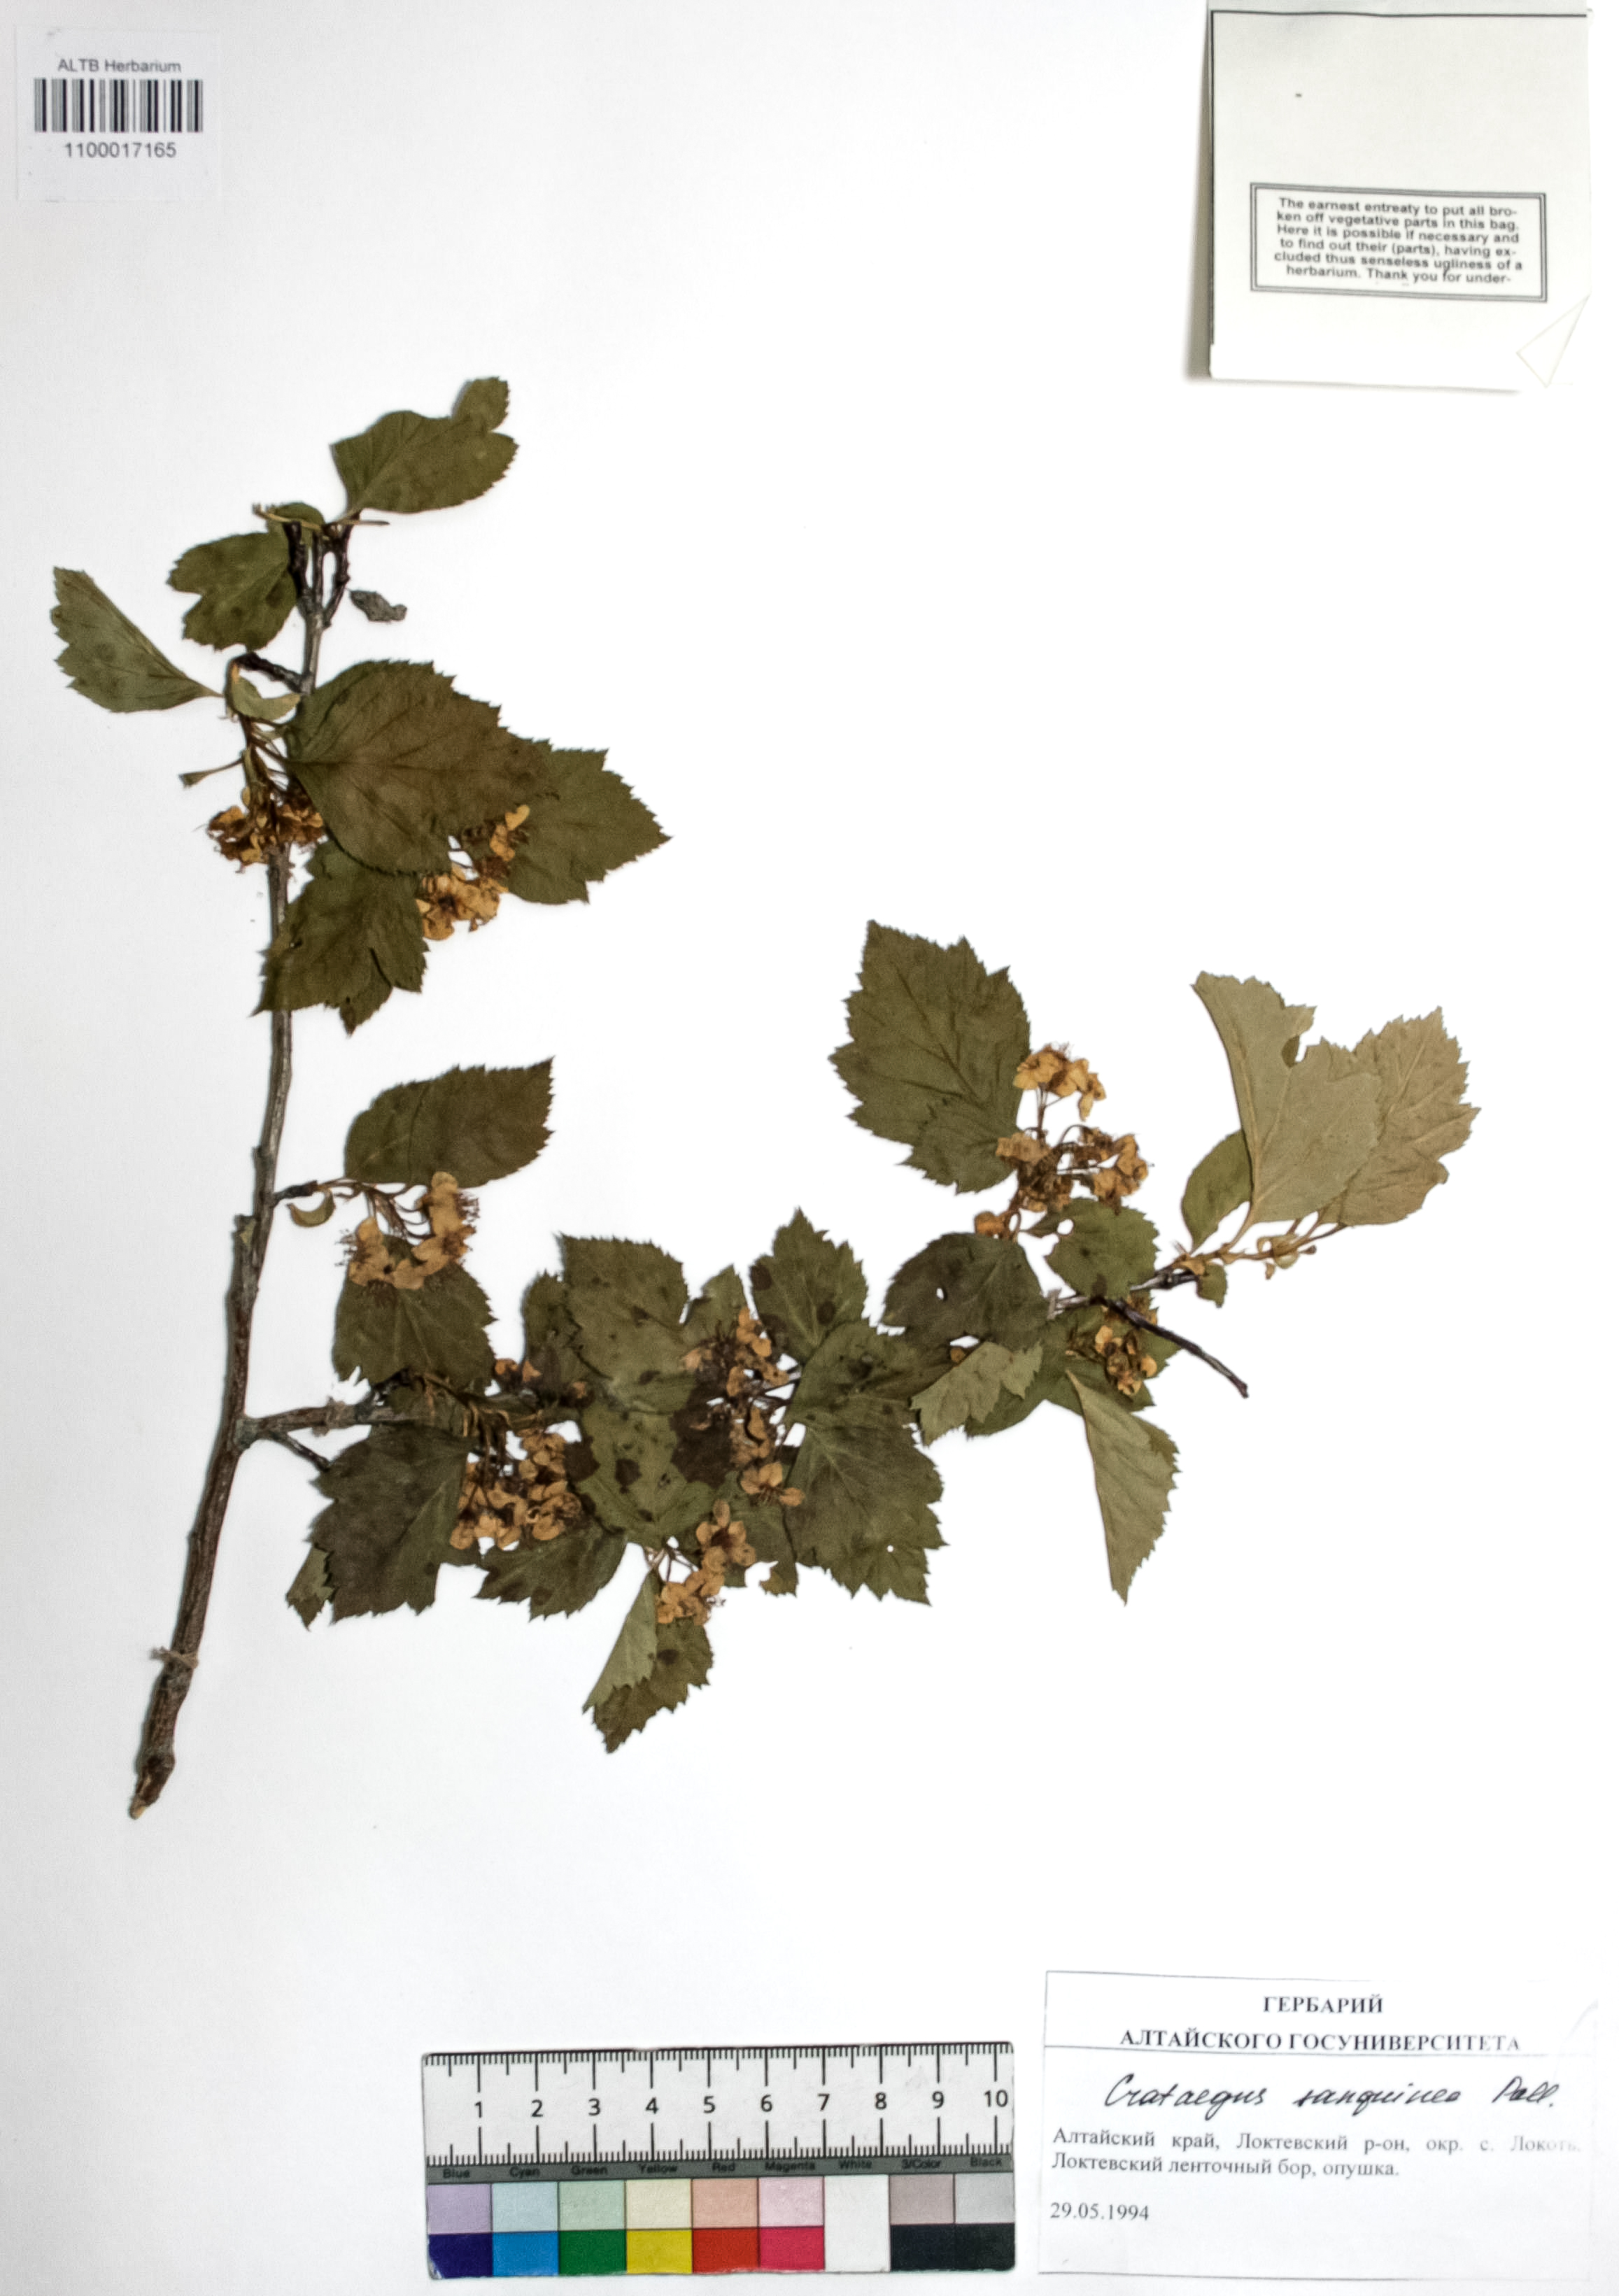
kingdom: Plantae
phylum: Tracheophyta
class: Magnoliopsida
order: Rosales
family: Rosaceae
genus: Crataegus
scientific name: Crataegus sanguinea
